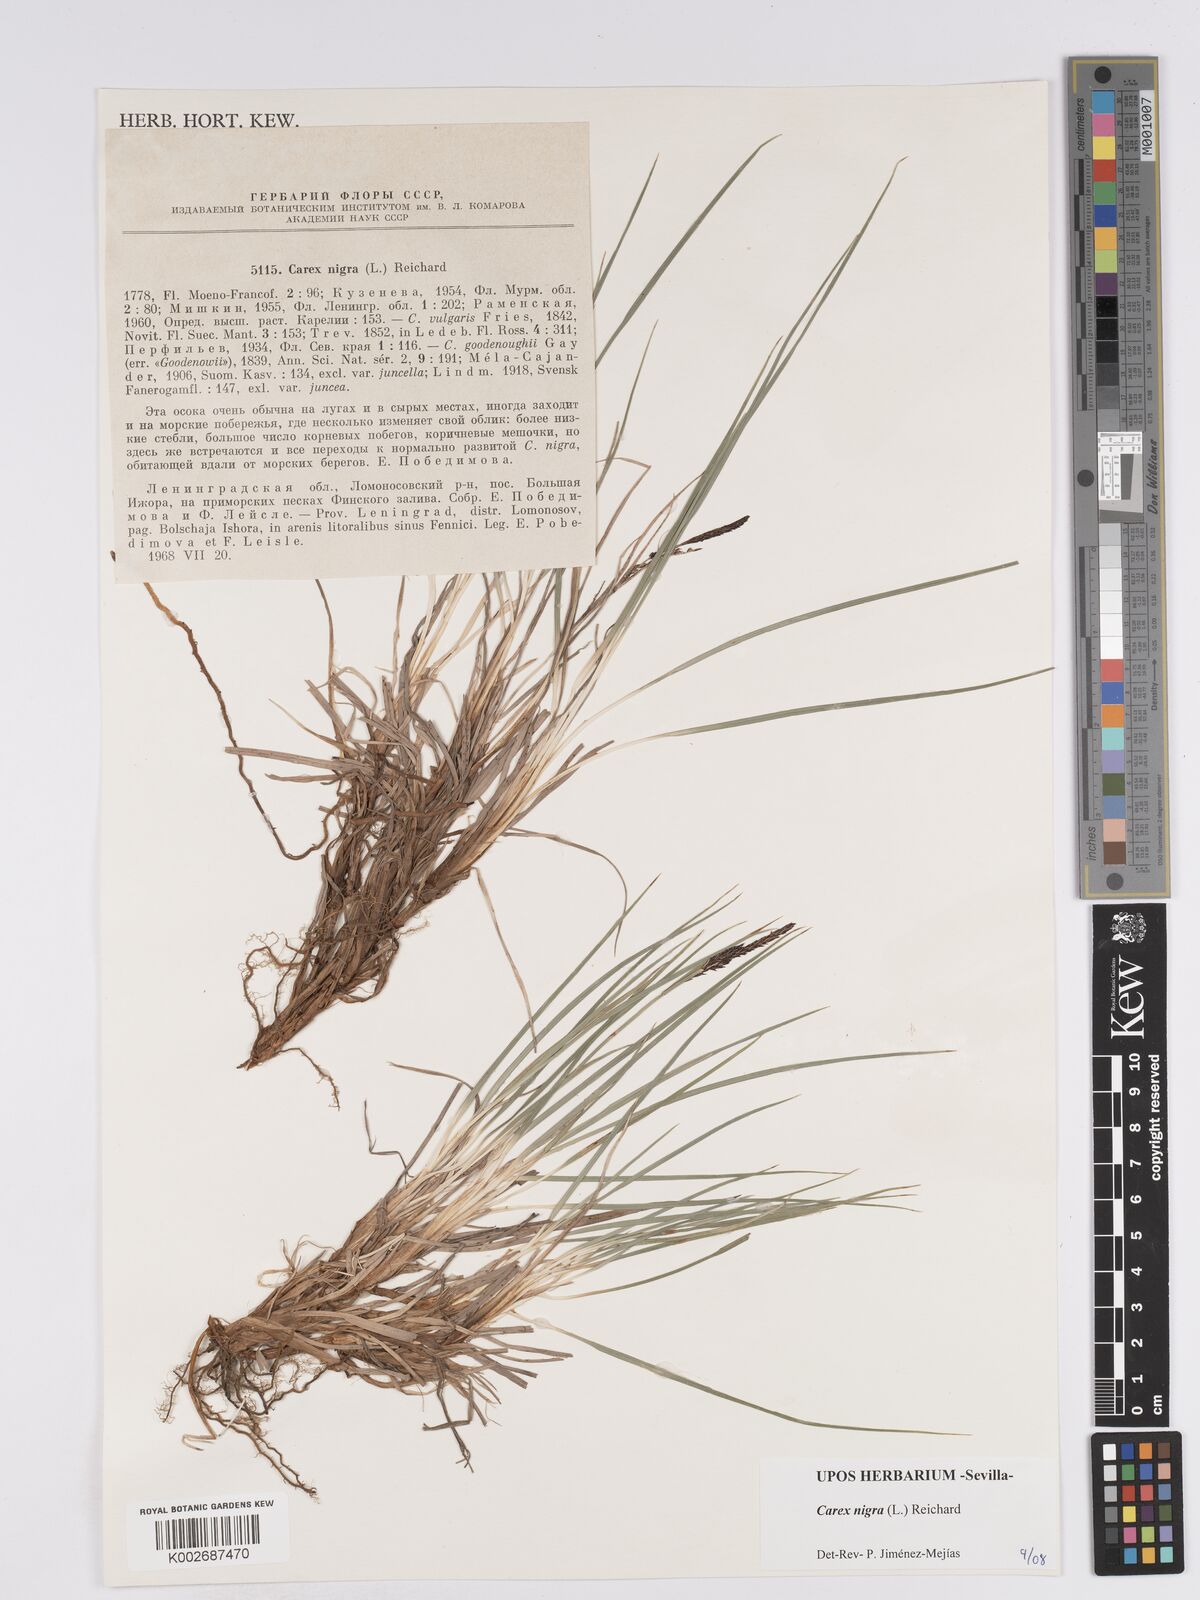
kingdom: Plantae
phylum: Tracheophyta
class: Liliopsida
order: Poales
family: Cyperaceae
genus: Carex
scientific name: Carex nigra
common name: Common sedge
